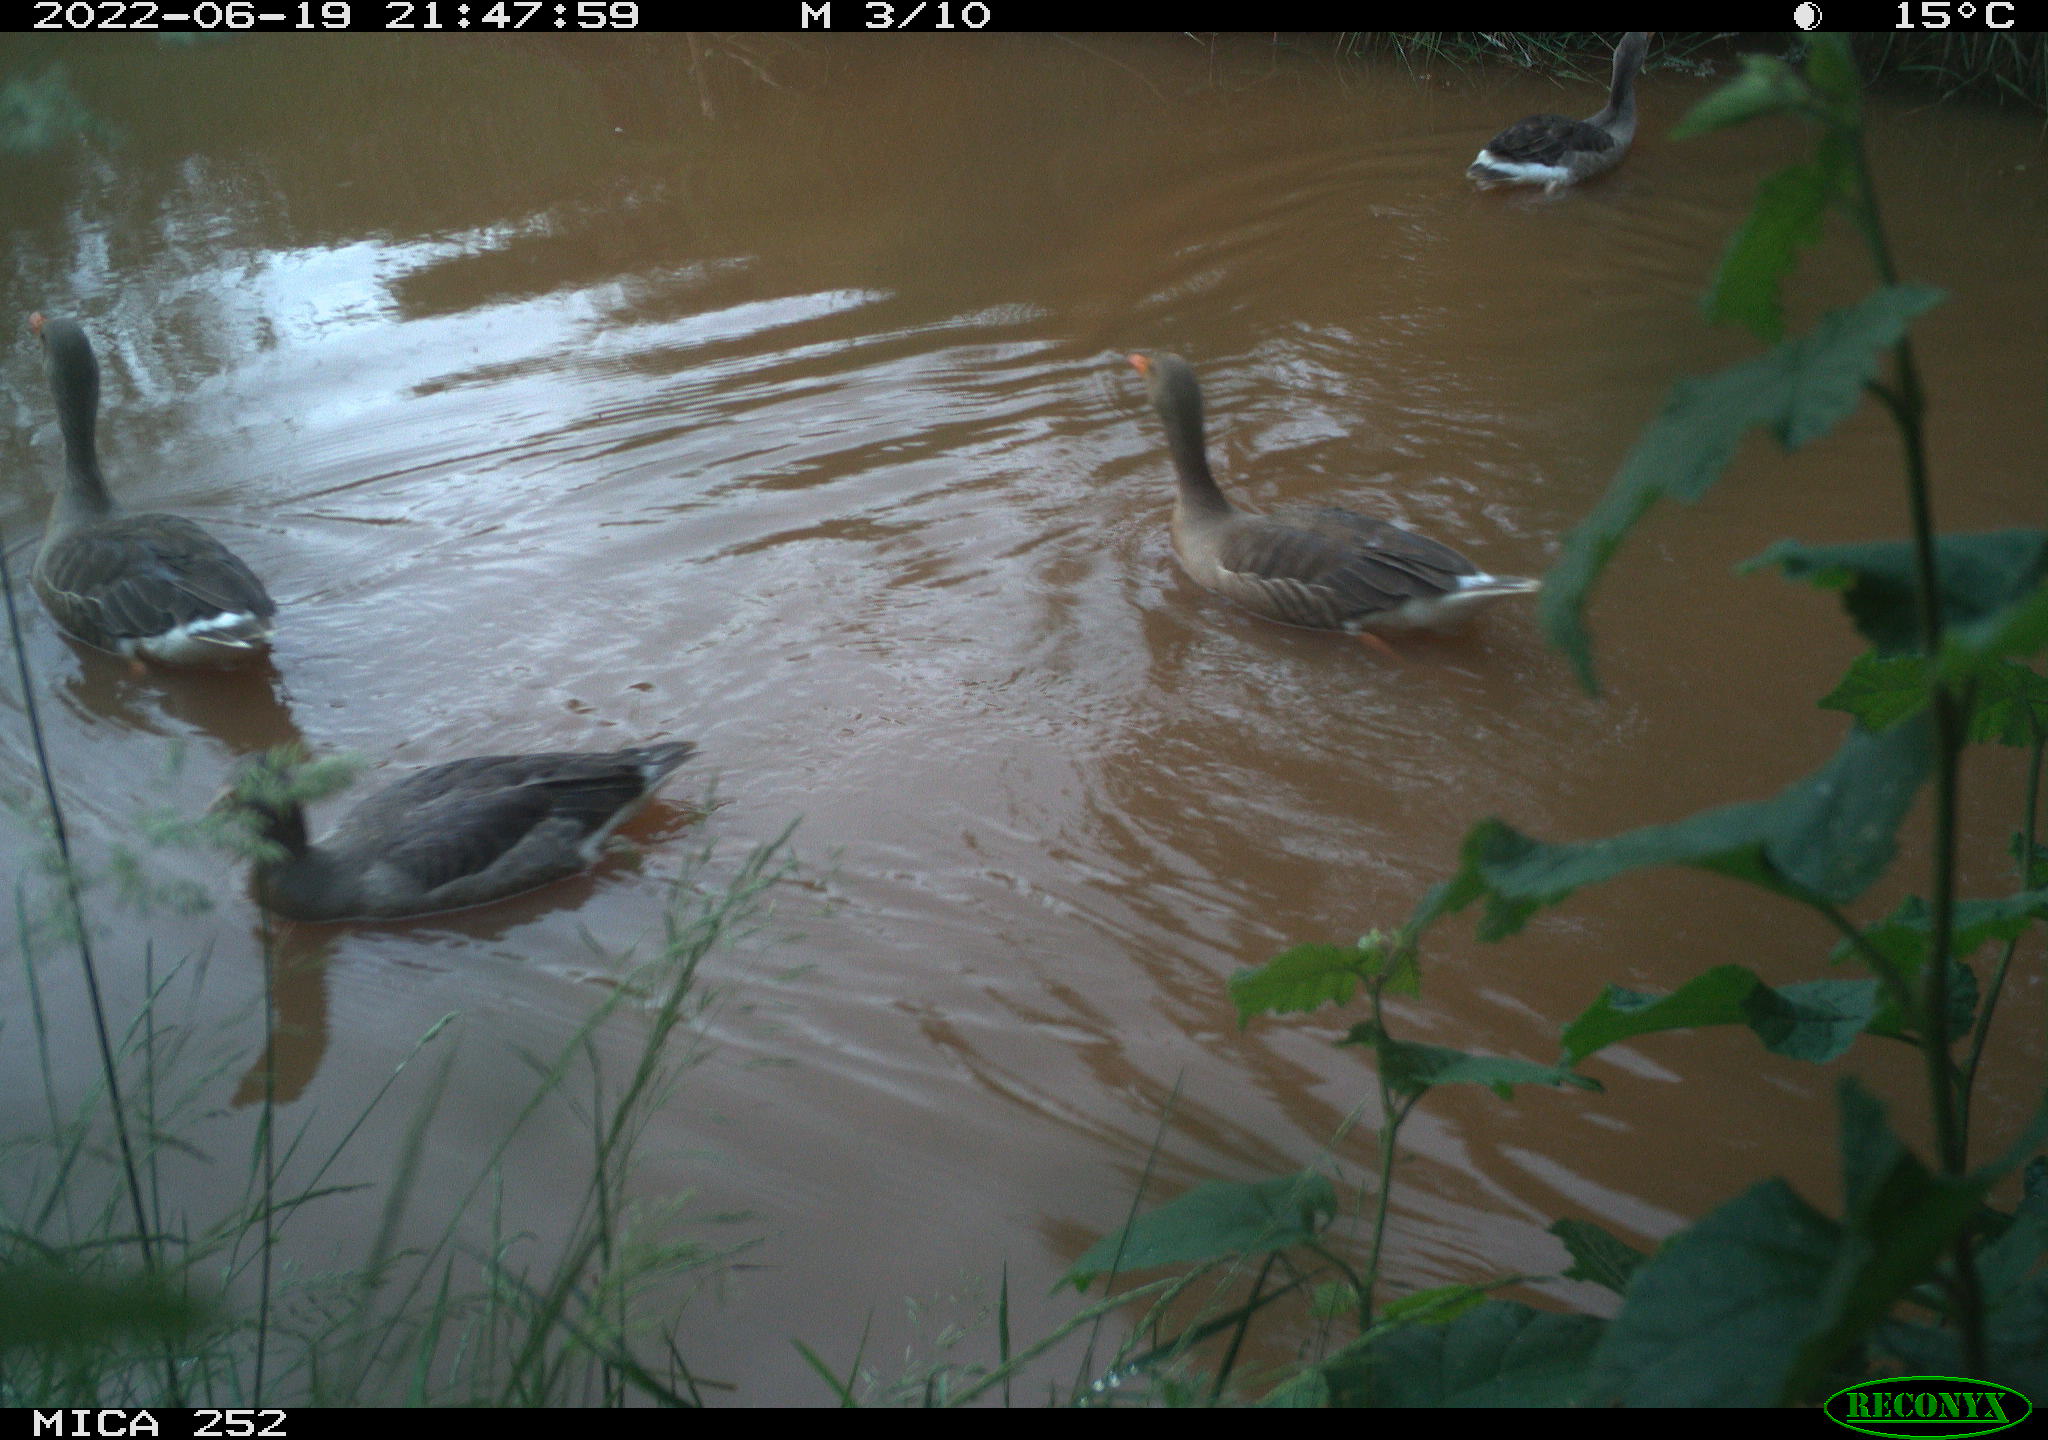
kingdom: Animalia
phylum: Chordata
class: Aves
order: Anseriformes
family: Anatidae
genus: Anser
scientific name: Anser anser
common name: Greylag goose
